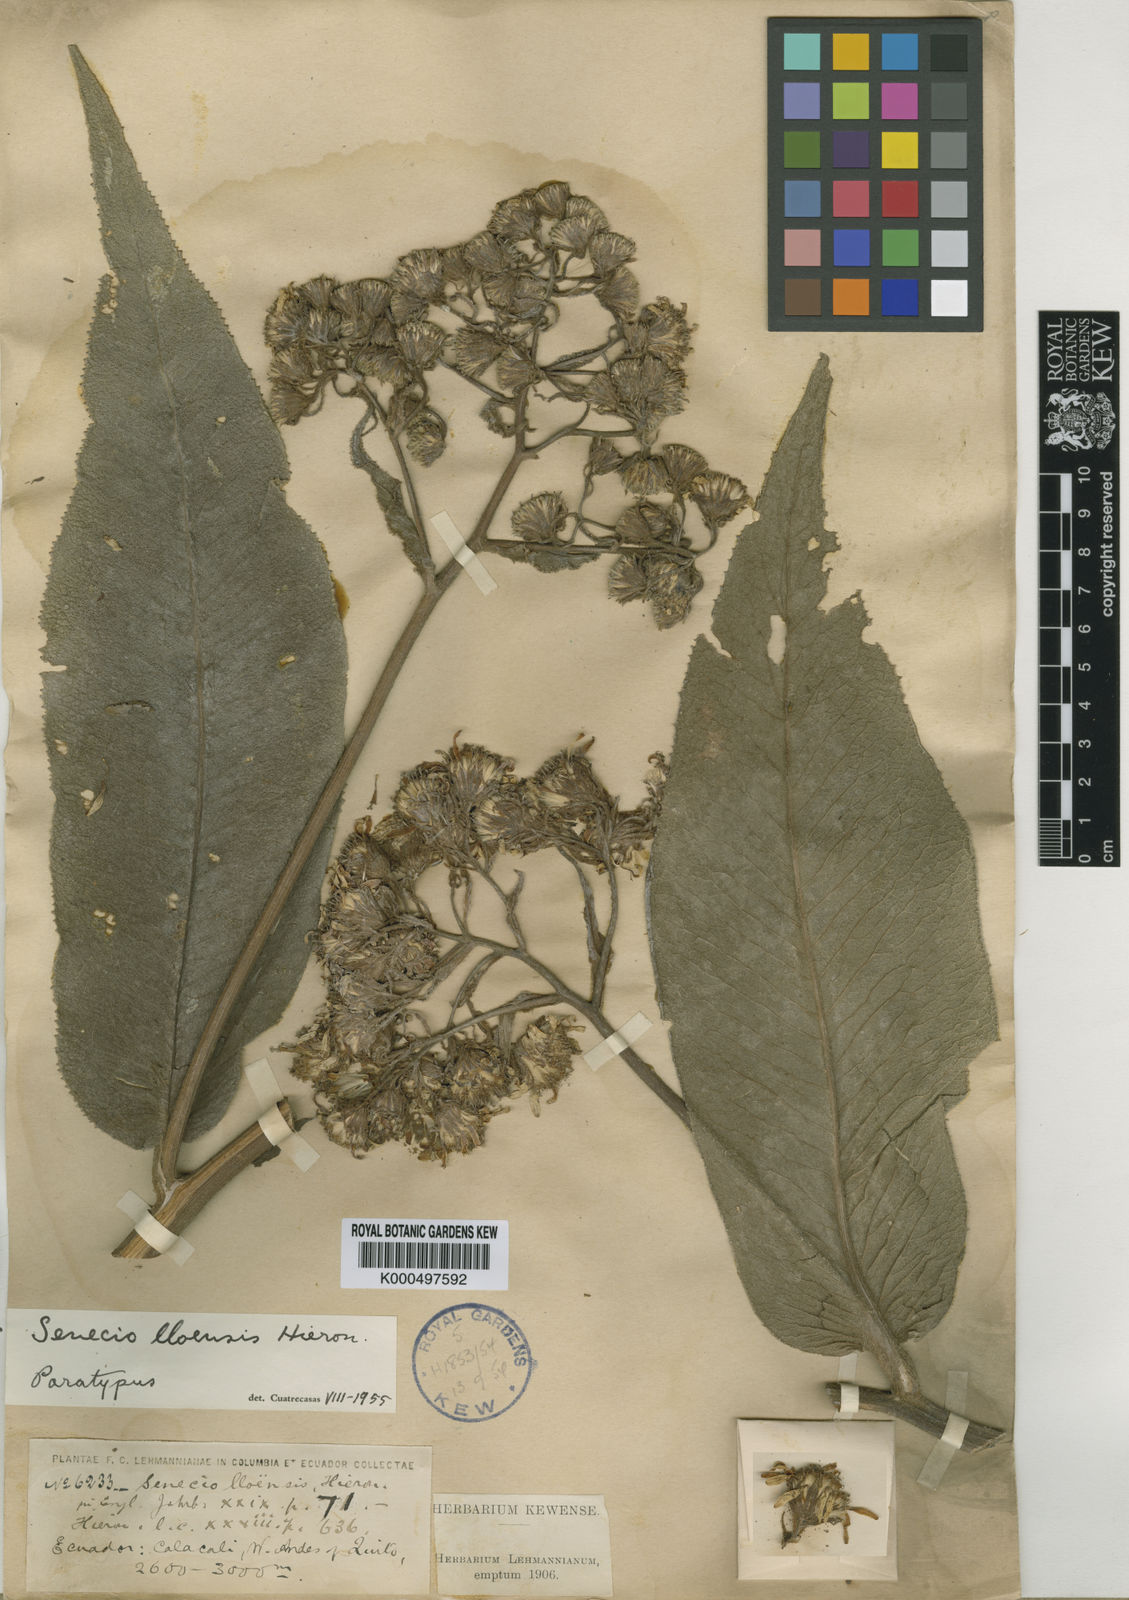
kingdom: Plantae
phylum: Tracheophyta
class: Magnoliopsida
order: Asterales
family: Asteraceae
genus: Dendrophorbium
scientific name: Dendrophorbium lloense
